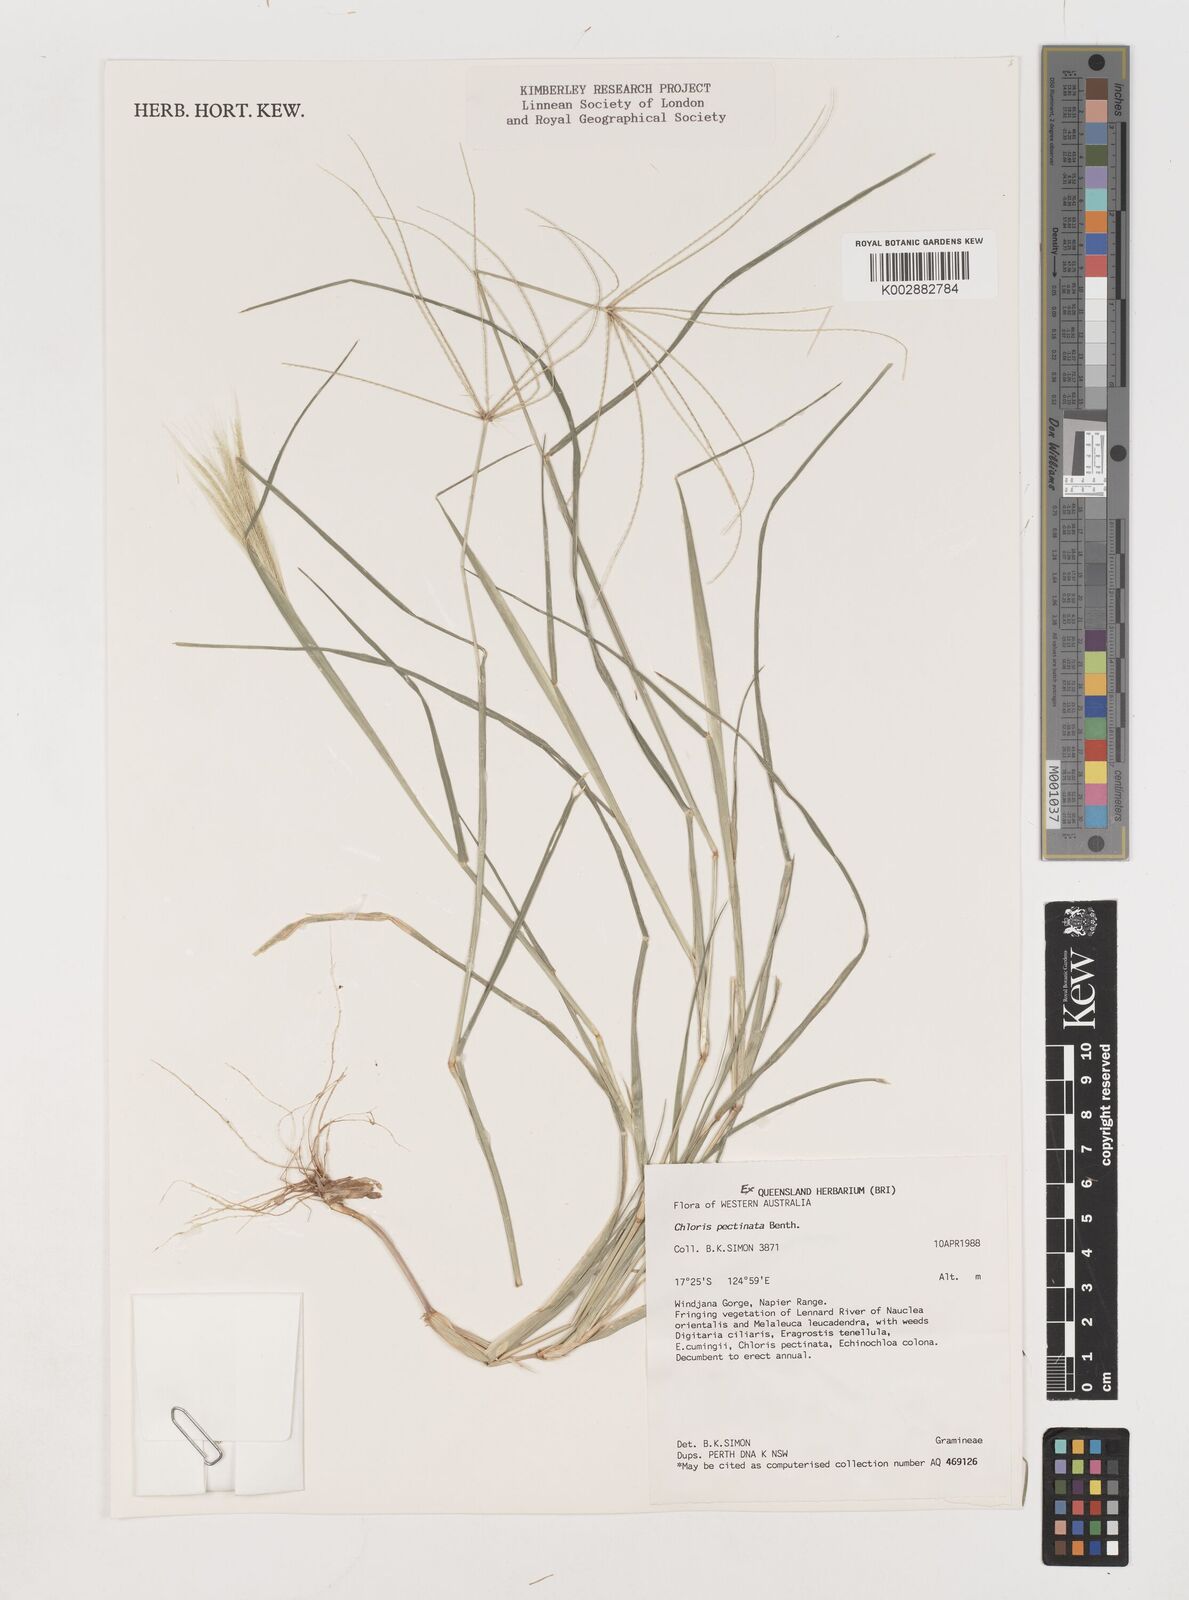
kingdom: Plantae
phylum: Tracheophyta
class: Liliopsida
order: Poales
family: Poaceae
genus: Chloris
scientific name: Chloris pectinata
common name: Comb windmill grass
